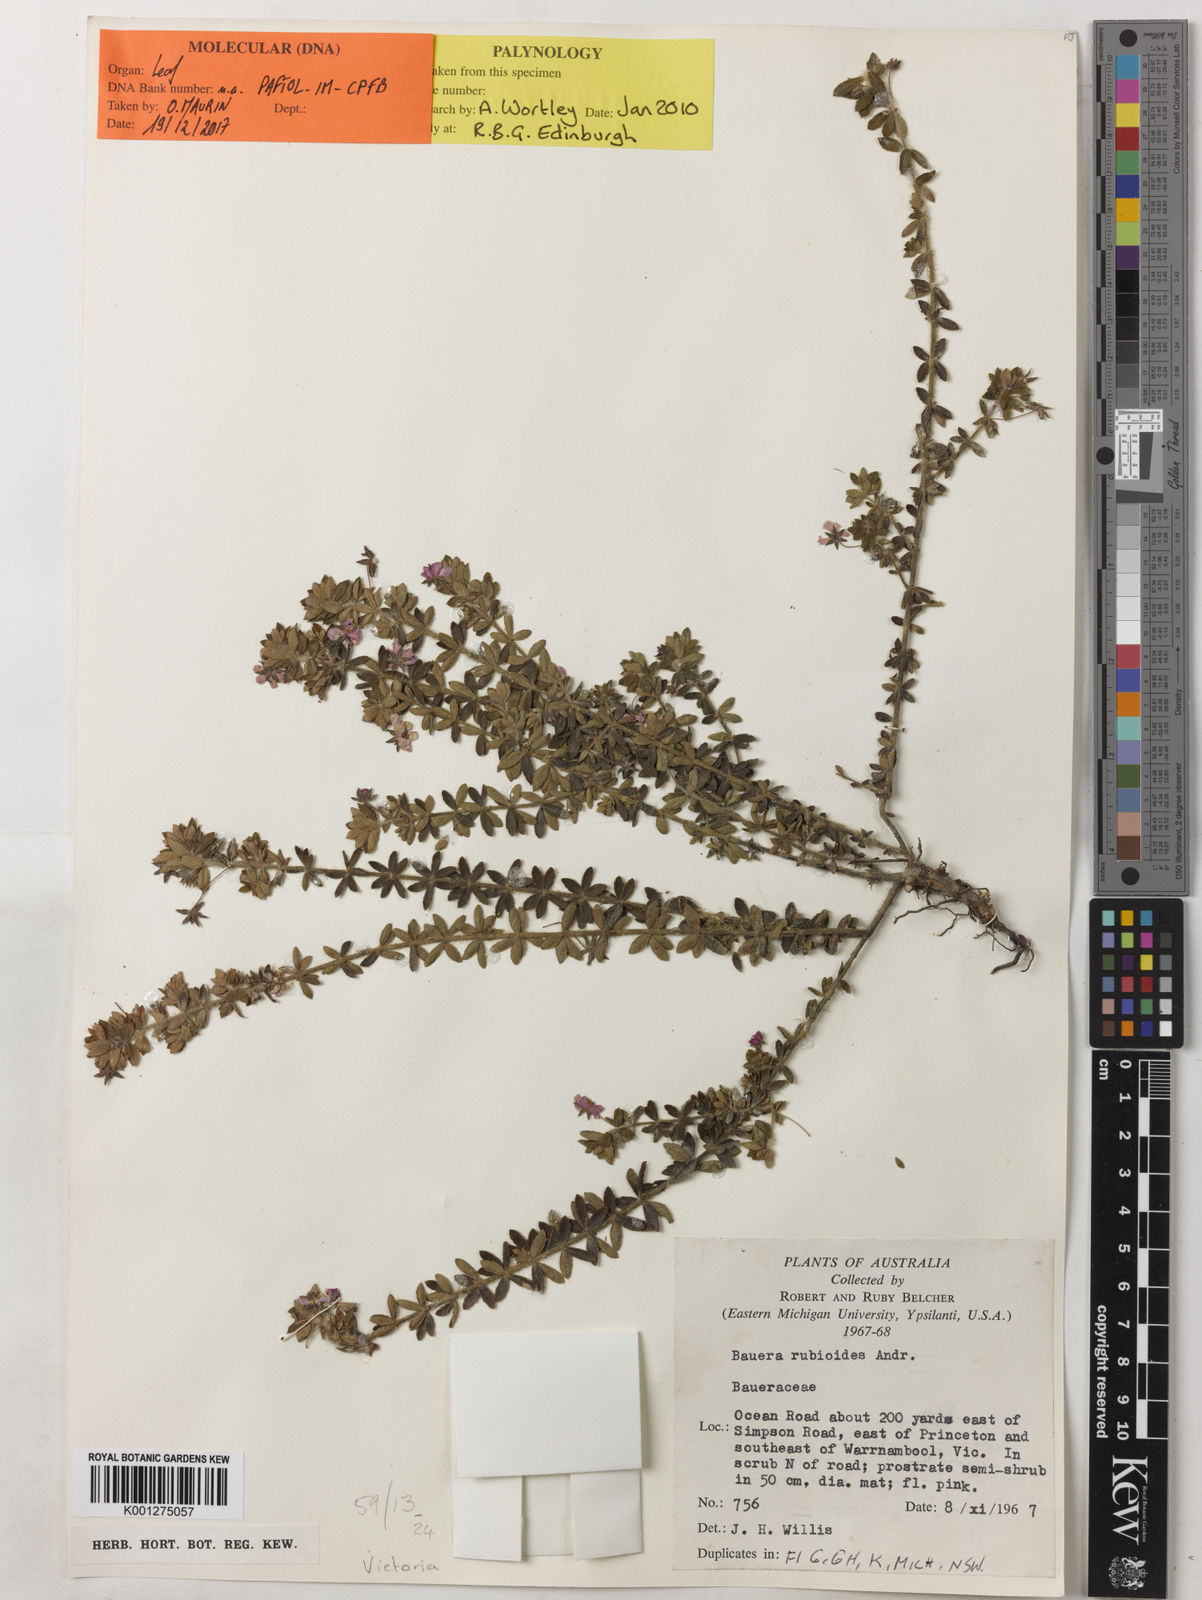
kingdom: Plantae
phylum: Tracheophyta
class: Magnoliopsida
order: Oxalidales
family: Cunoniaceae
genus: Bauera
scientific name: Bauera rubioides
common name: River-rose
